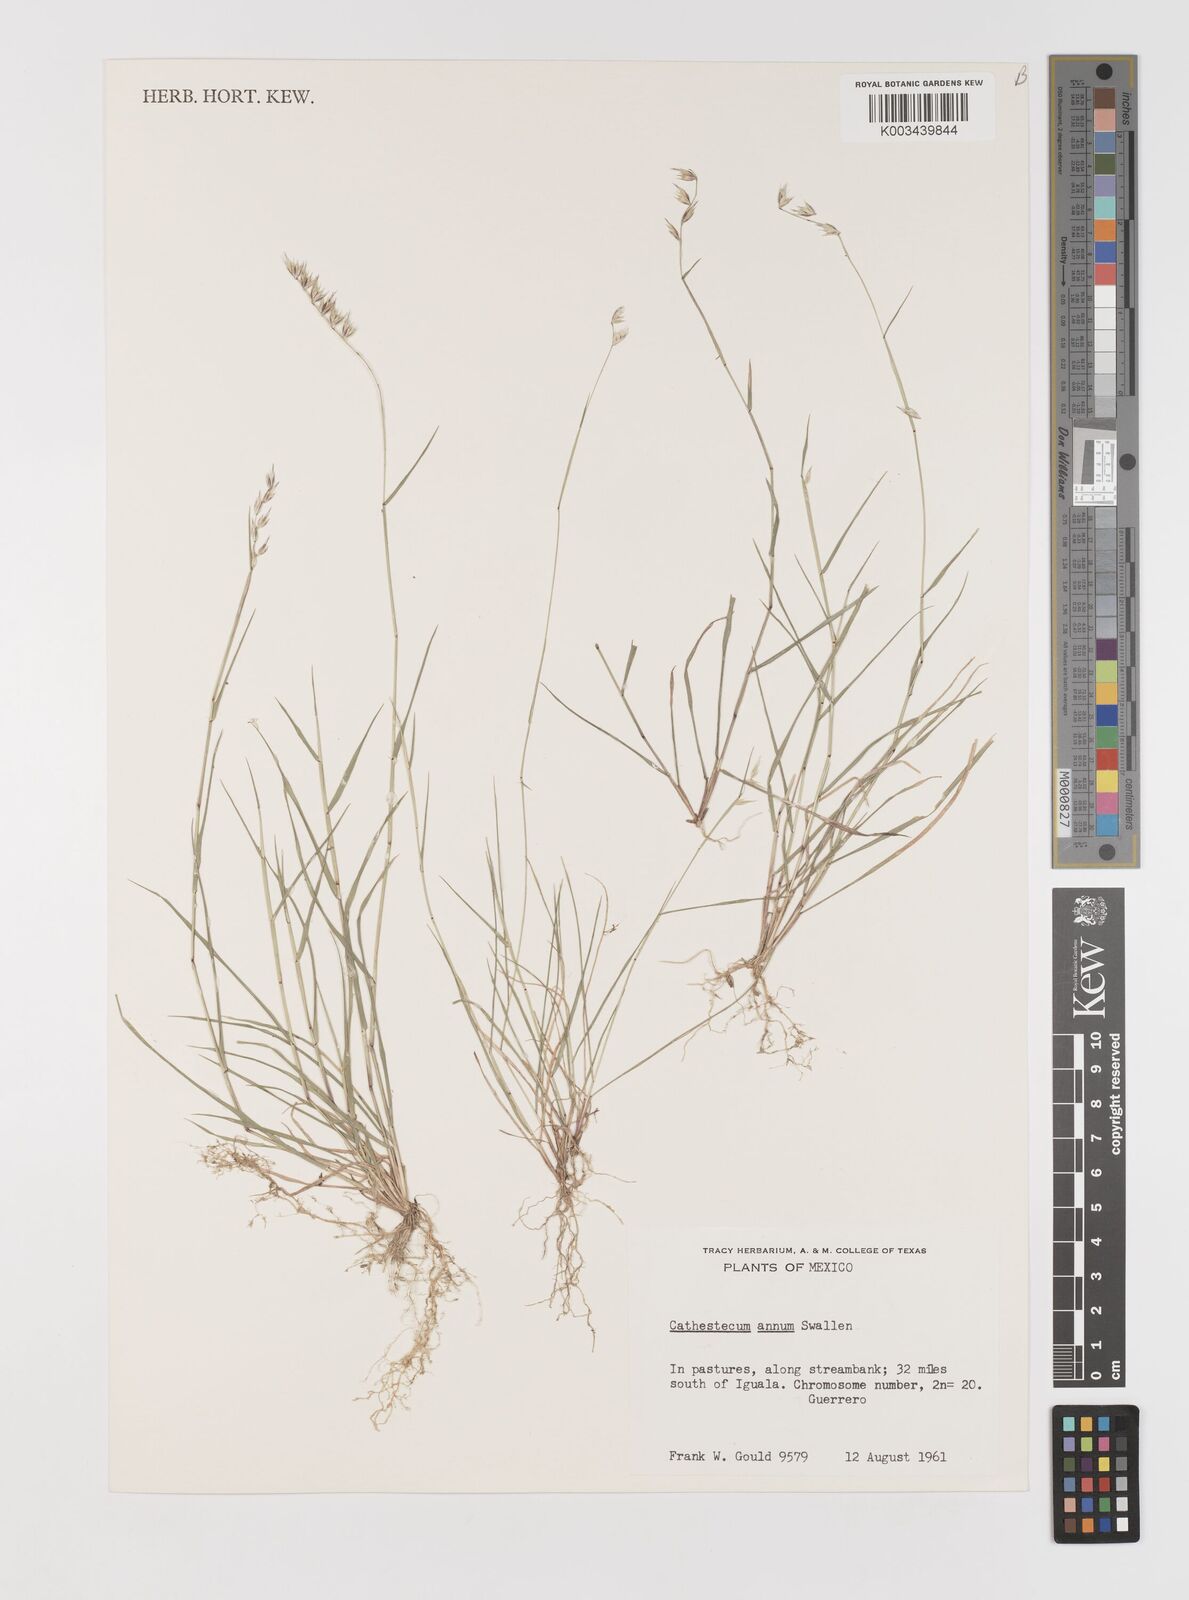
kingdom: Plantae
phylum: Tracheophyta
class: Liliopsida
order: Poales
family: Poaceae
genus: Bouteloua
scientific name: Bouteloua griffithsii
